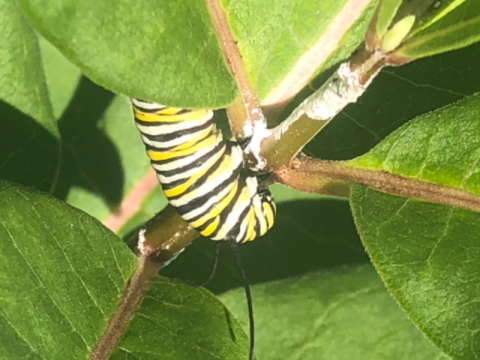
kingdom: Animalia
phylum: Arthropoda
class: Insecta
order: Lepidoptera
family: Nymphalidae
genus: Danaus
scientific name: Danaus plexippus
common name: Monarch
